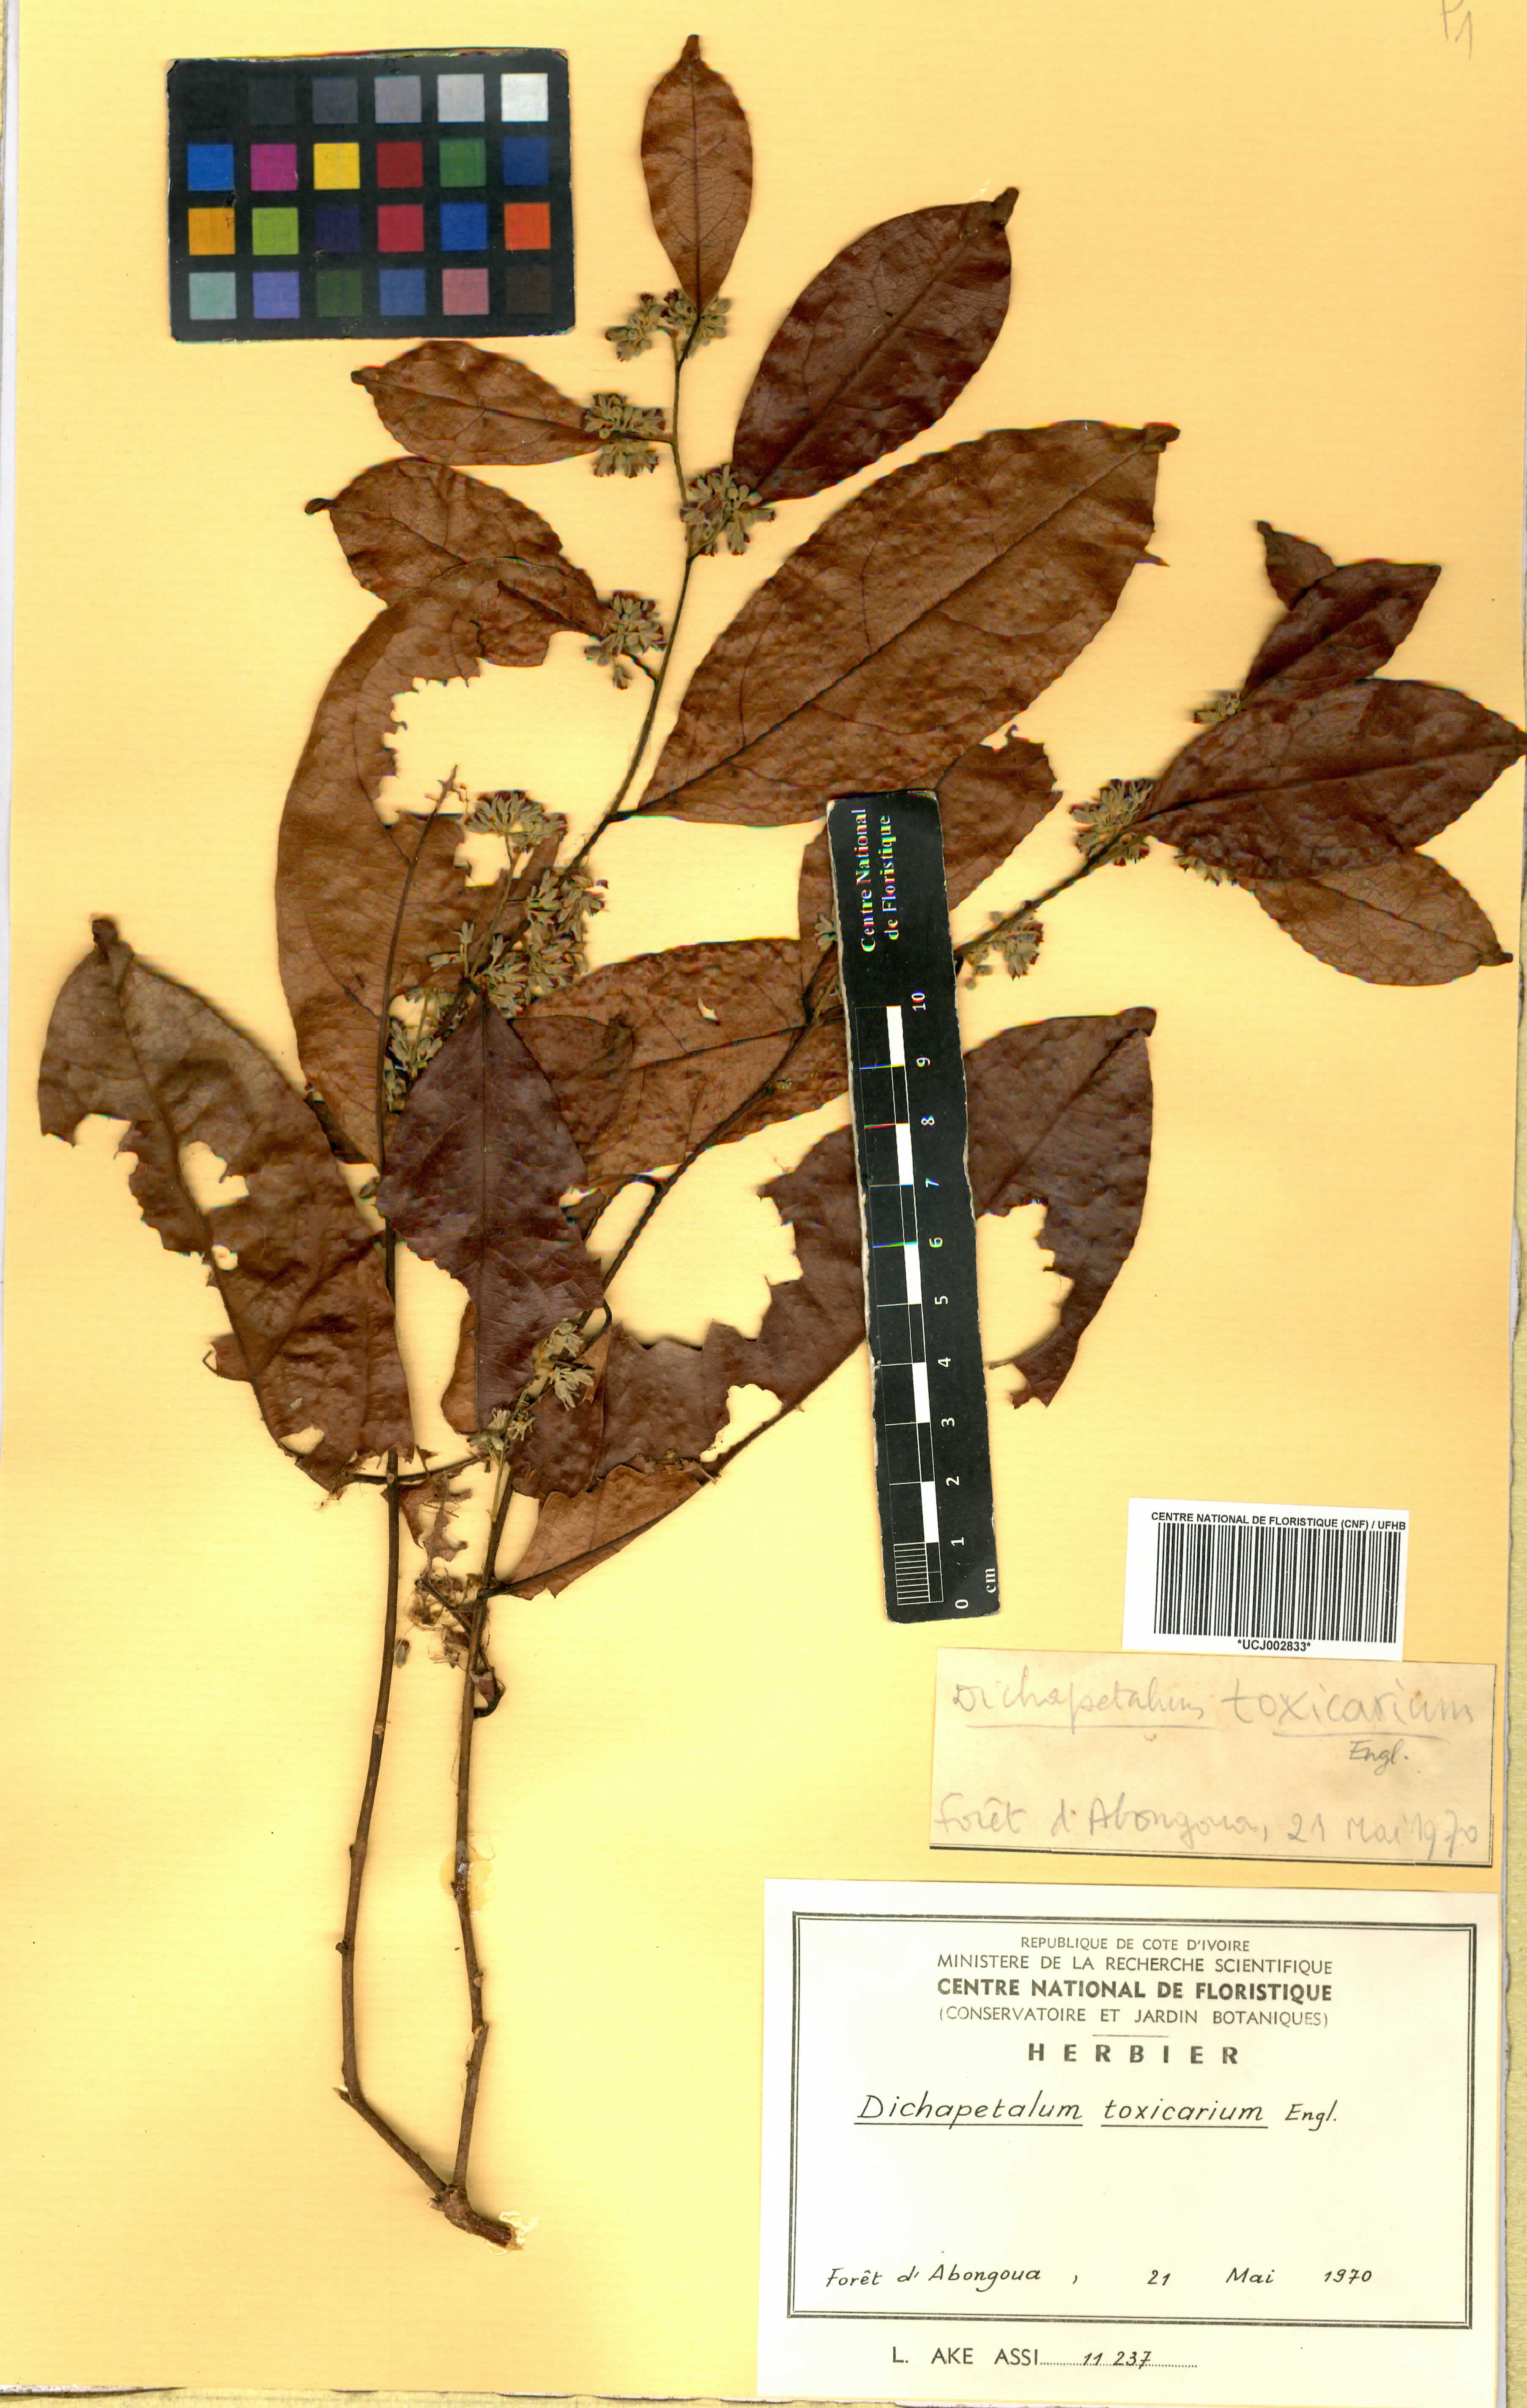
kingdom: Plantae
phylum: Tracheophyta
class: Magnoliopsida
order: Malpighiales
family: Dichapetalaceae
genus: Dichapetalum
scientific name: Dichapetalum toxicarium
